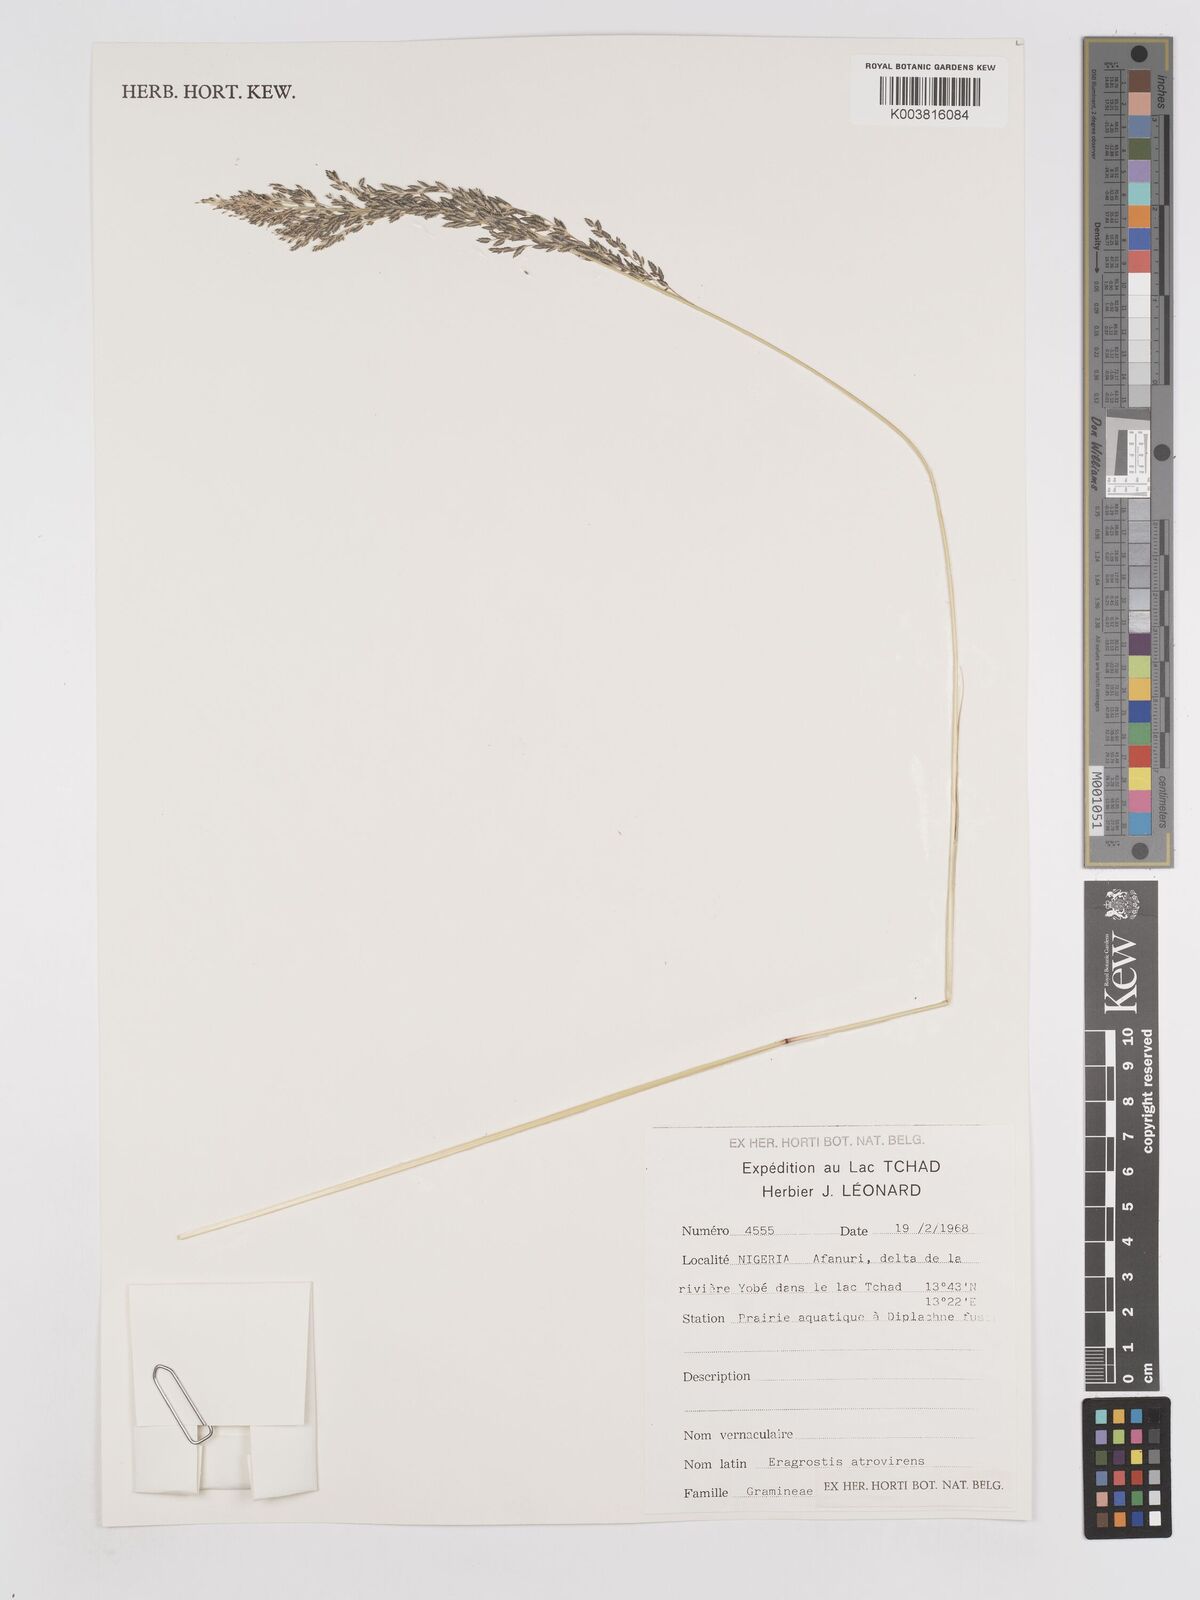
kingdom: Plantae
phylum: Tracheophyta
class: Liliopsida
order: Poales
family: Poaceae
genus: Eragrostis
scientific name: Eragrostis atrovirens
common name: Thalia lovegrass
